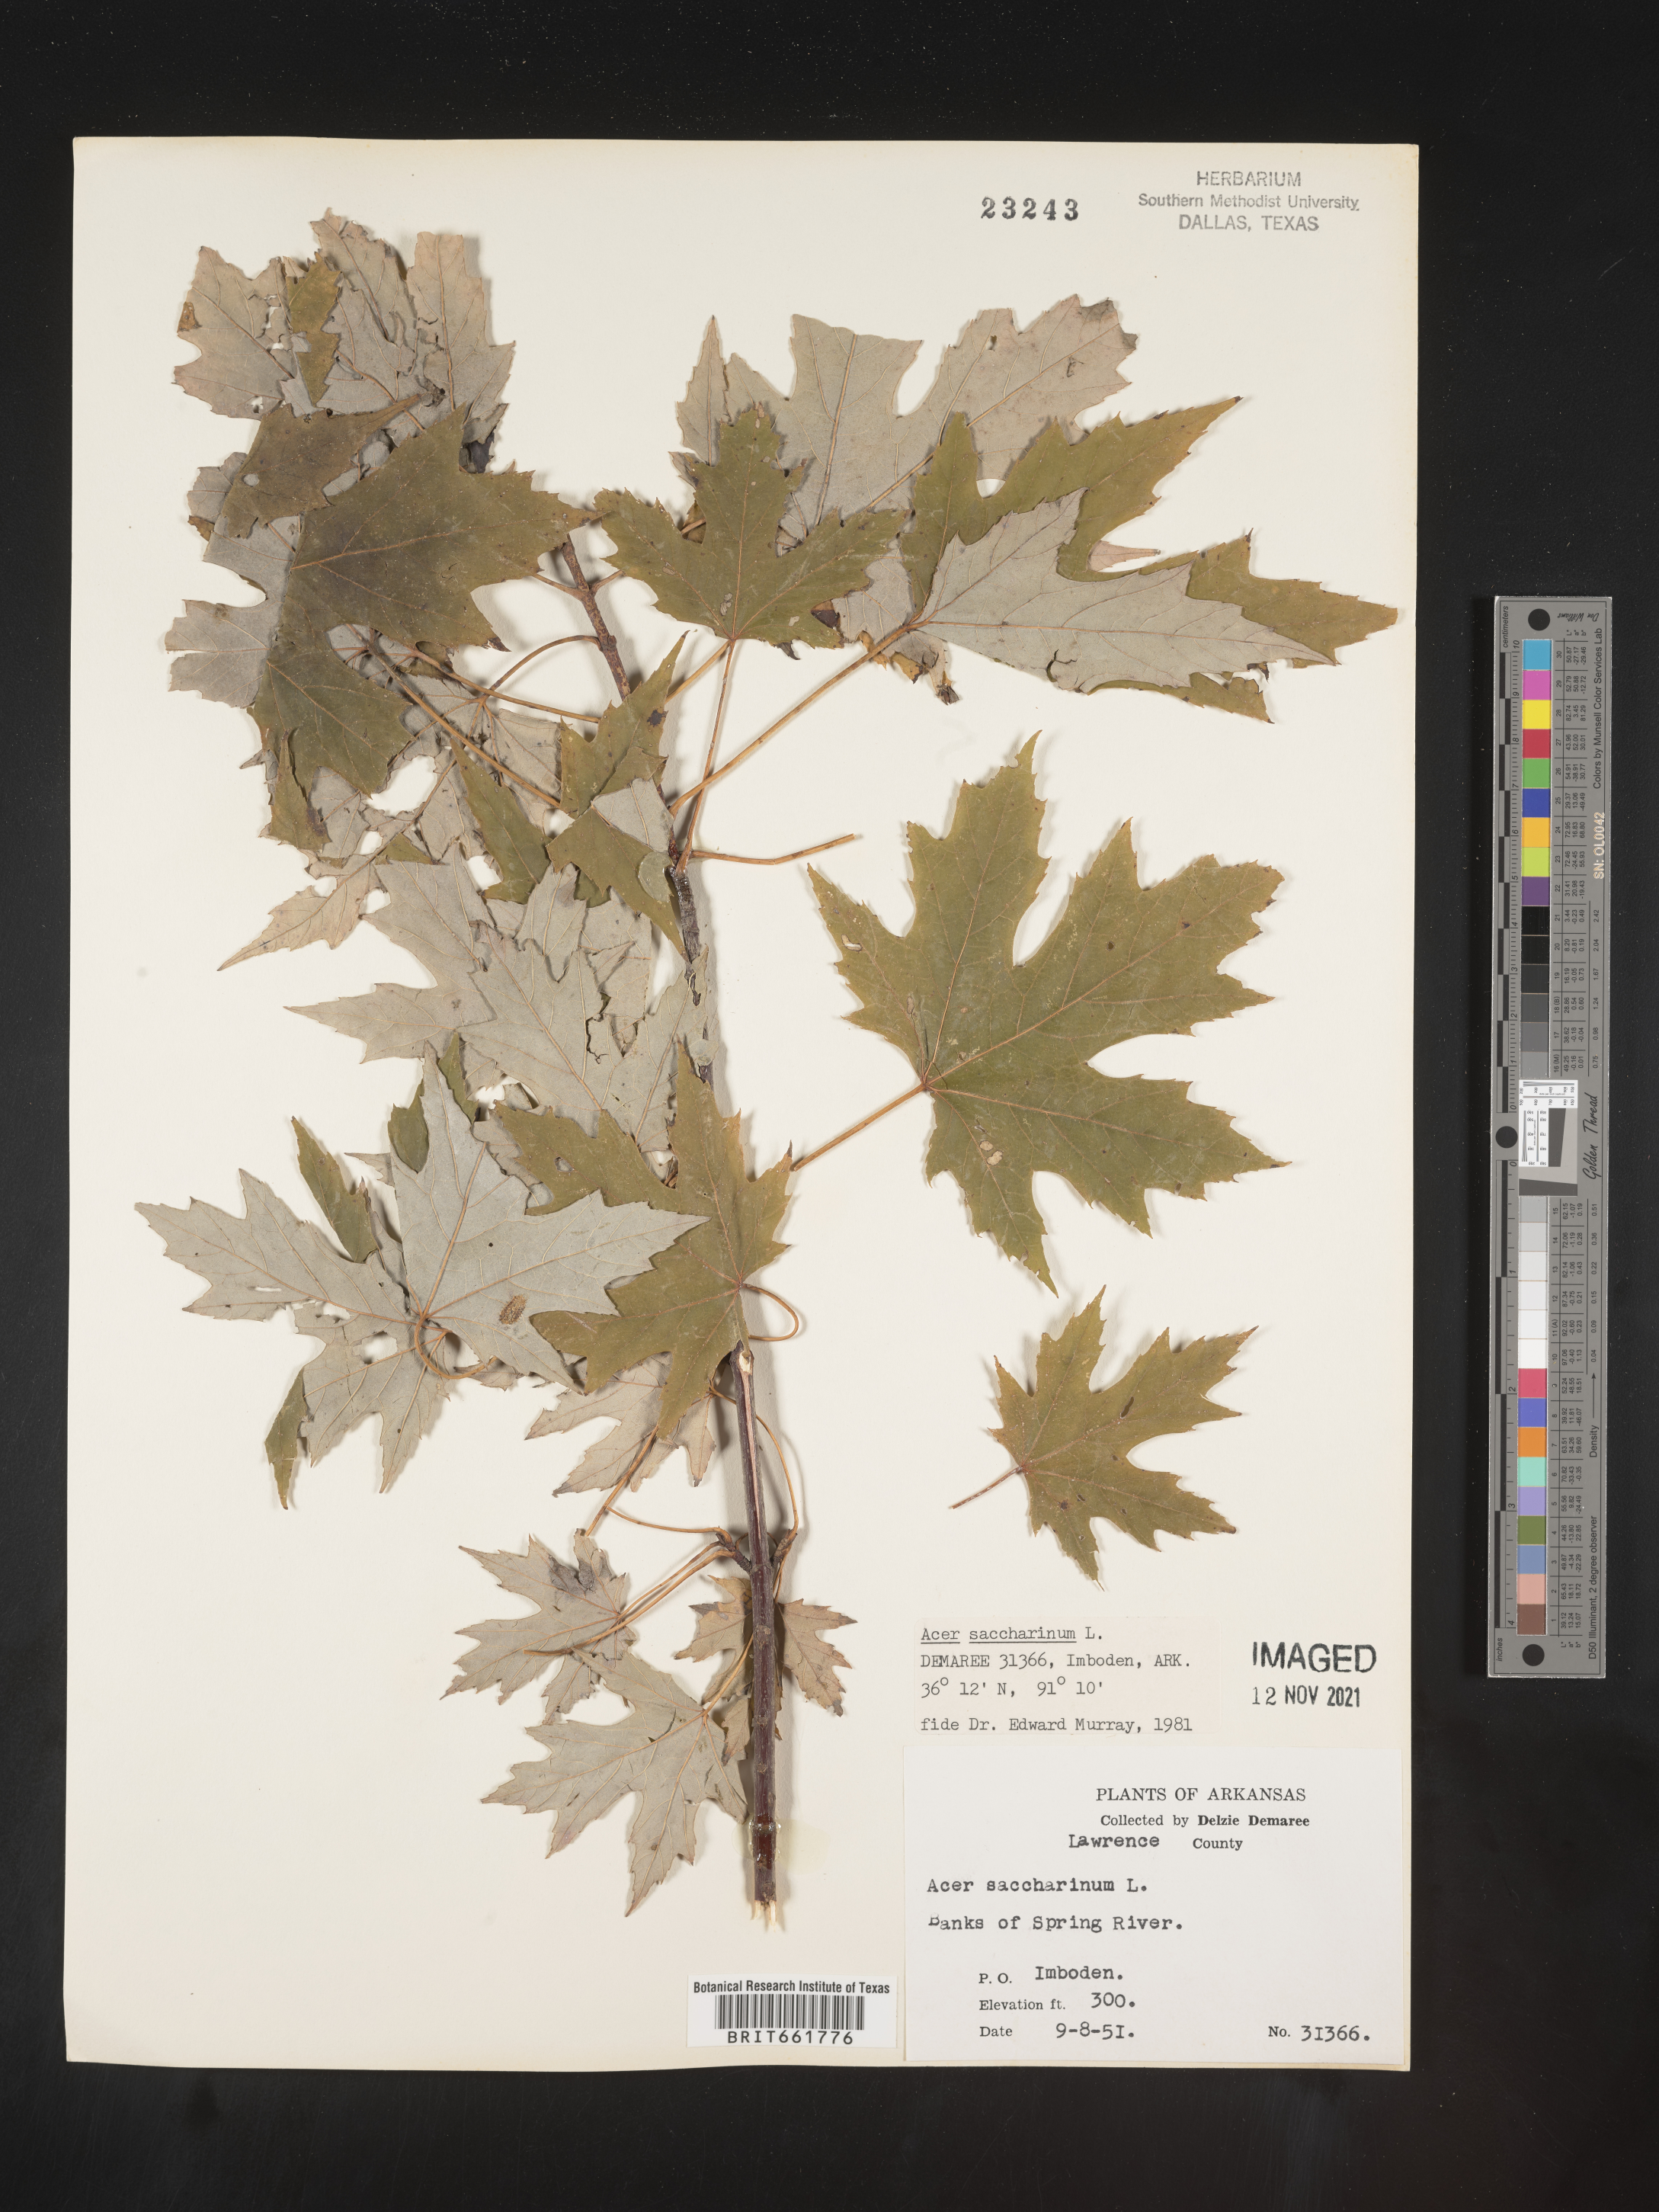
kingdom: Plantae
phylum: Tracheophyta
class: Magnoliopsida
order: Sapindales
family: Sapindaceae
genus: Acer
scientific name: Acer saccharinum
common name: Silver maple
